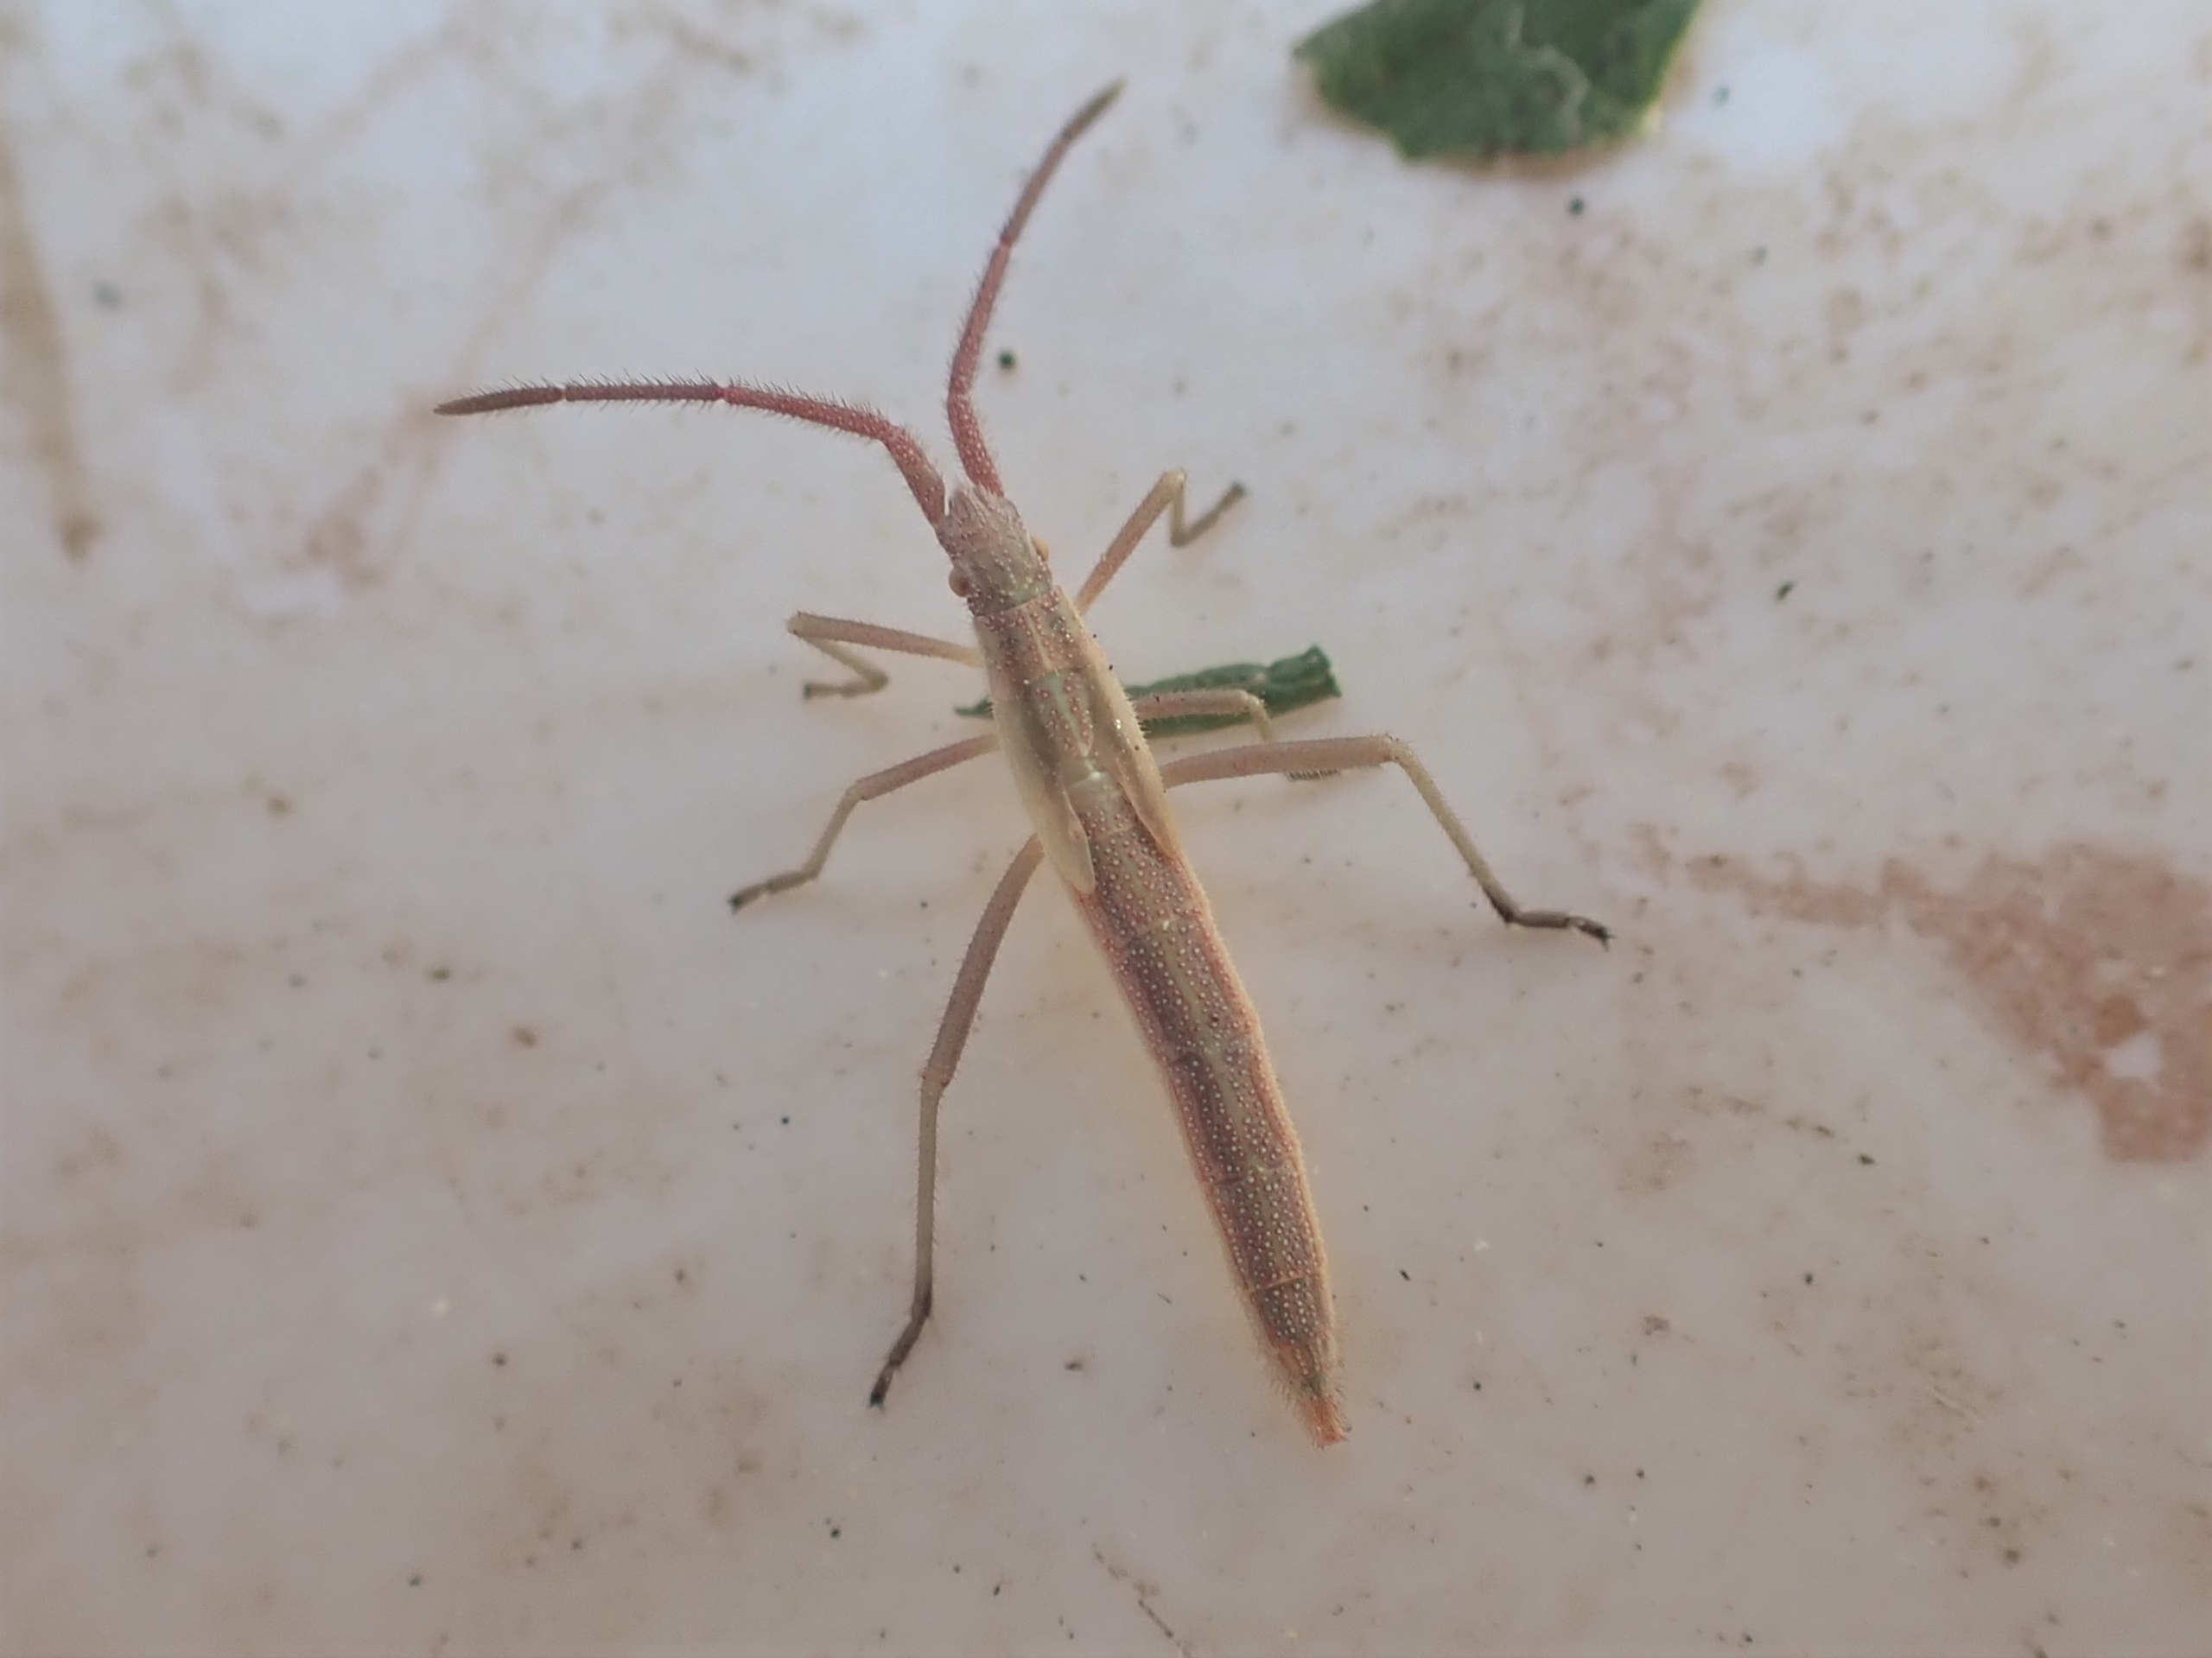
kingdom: Animalia
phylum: Arthropoda
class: Insecta
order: Hemiptera
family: Rhopalidae
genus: Chorosoma
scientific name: Chorosoma schillingii
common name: Lang stråtæge
